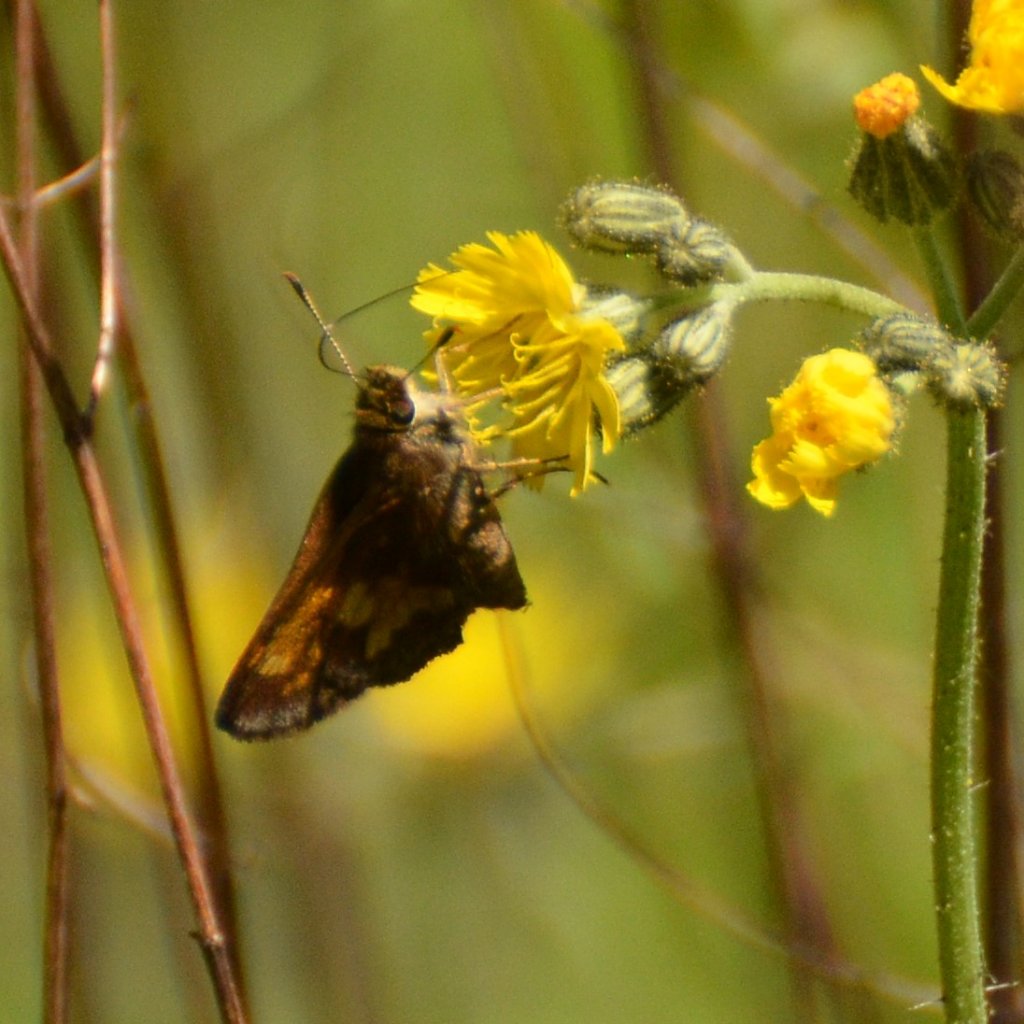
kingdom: Animalia
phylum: Arthropoda
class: Insecta
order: Lepidoptera
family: Hesperiidae
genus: Lon
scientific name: Lon hobomok
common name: Hobomok Skipper
